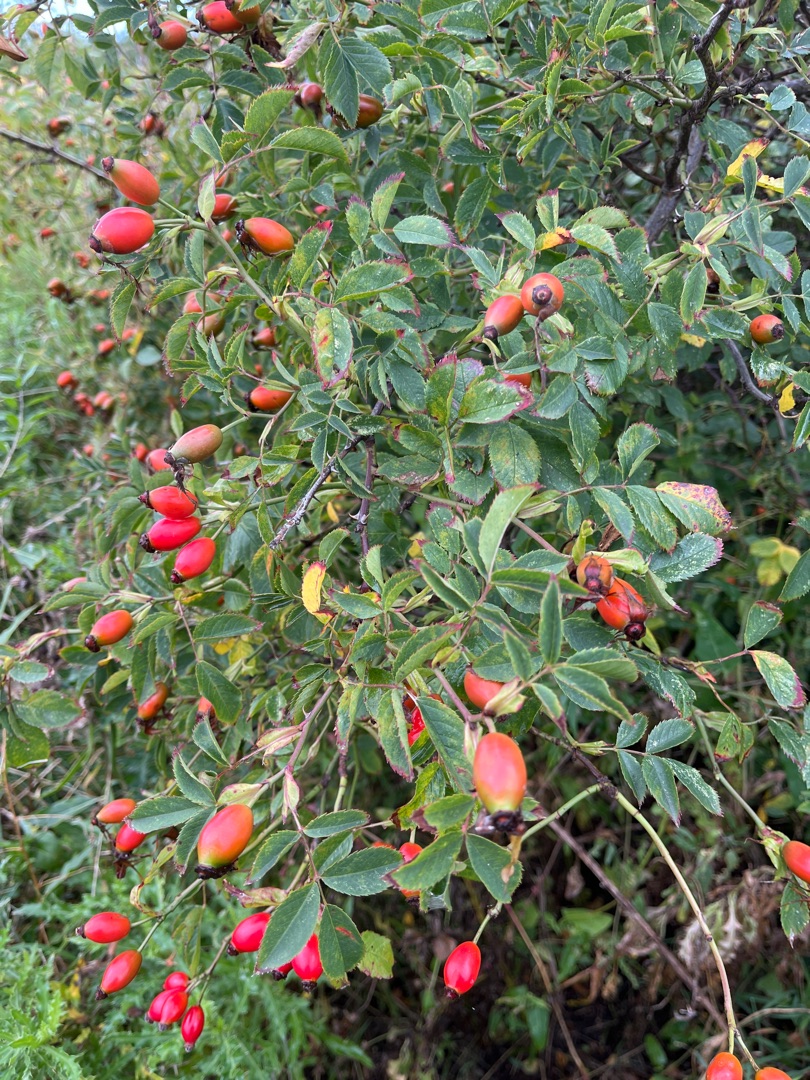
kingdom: Plantae
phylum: Tracheophyta
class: Magnoliopsida
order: Rosales
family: Rosaceae
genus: Rosa
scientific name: Rosa canina
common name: Glat hunde-rose
